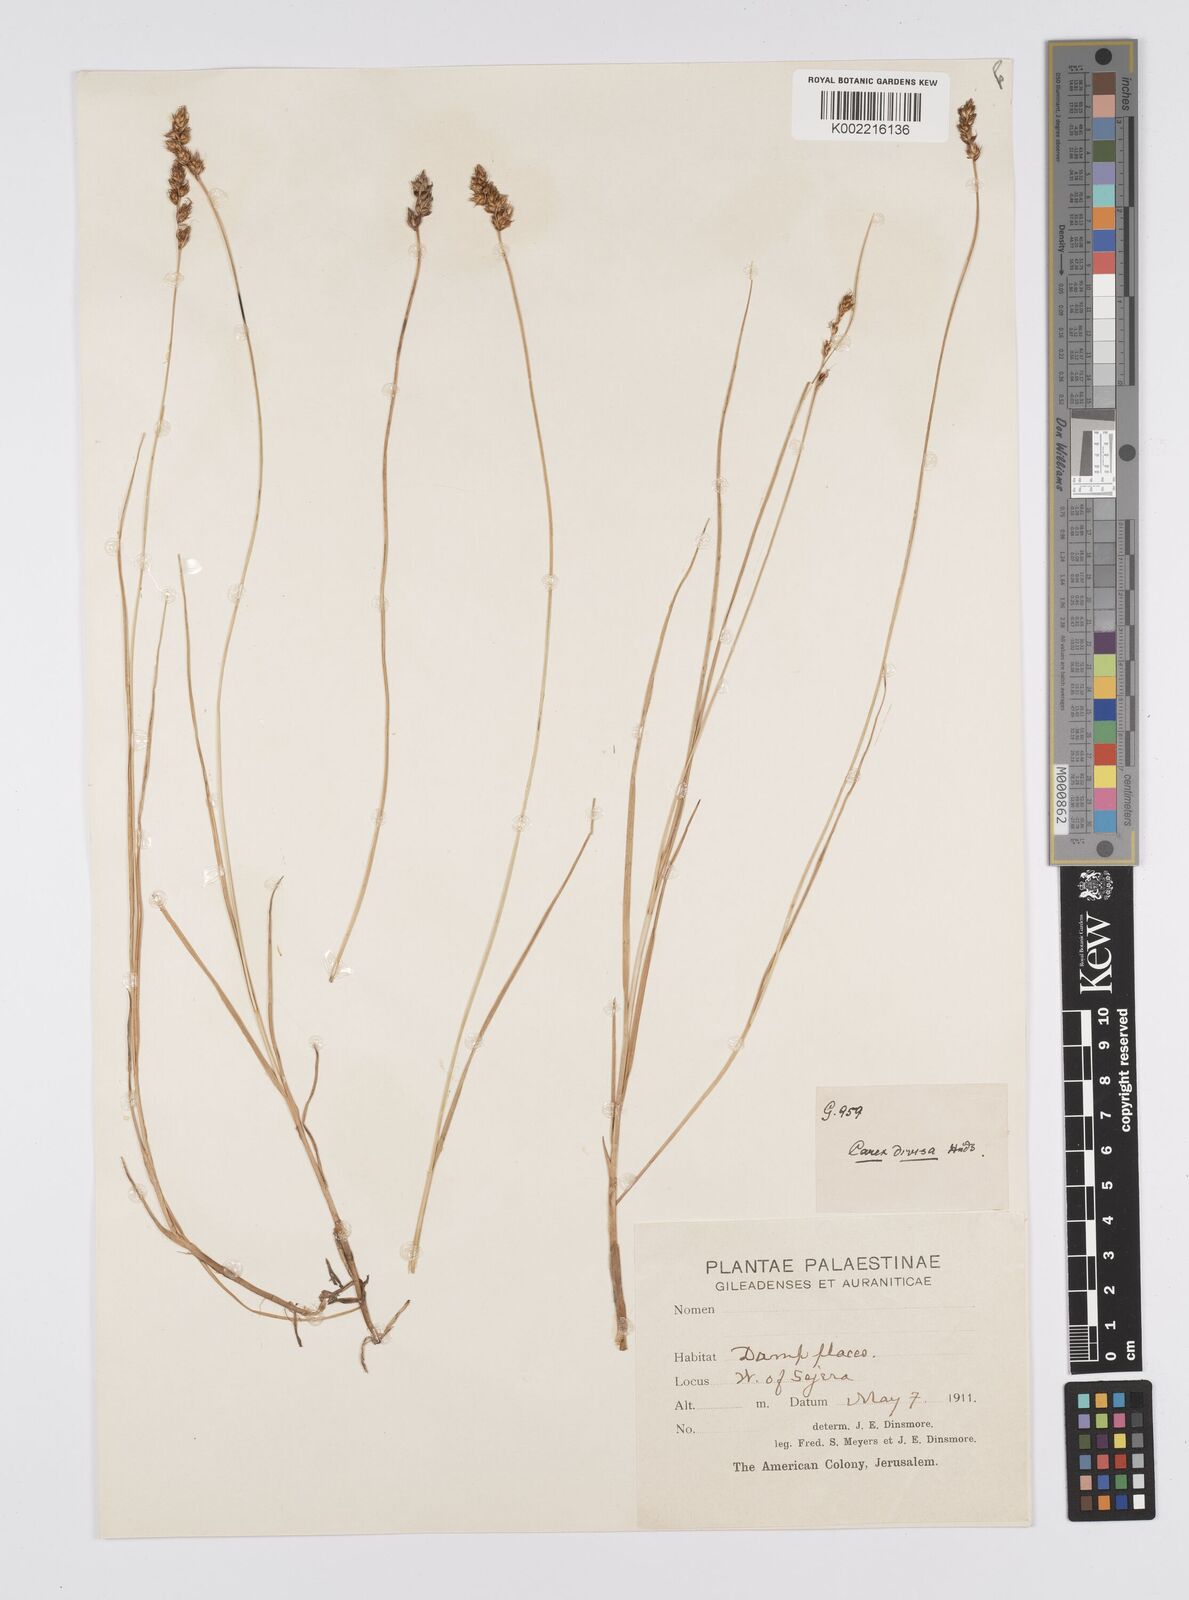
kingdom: Plantae
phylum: Tracheophyta
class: Liliopsida
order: Poales
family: Cyperaceae
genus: Carex
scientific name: Carex divisa
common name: Divided sedge
